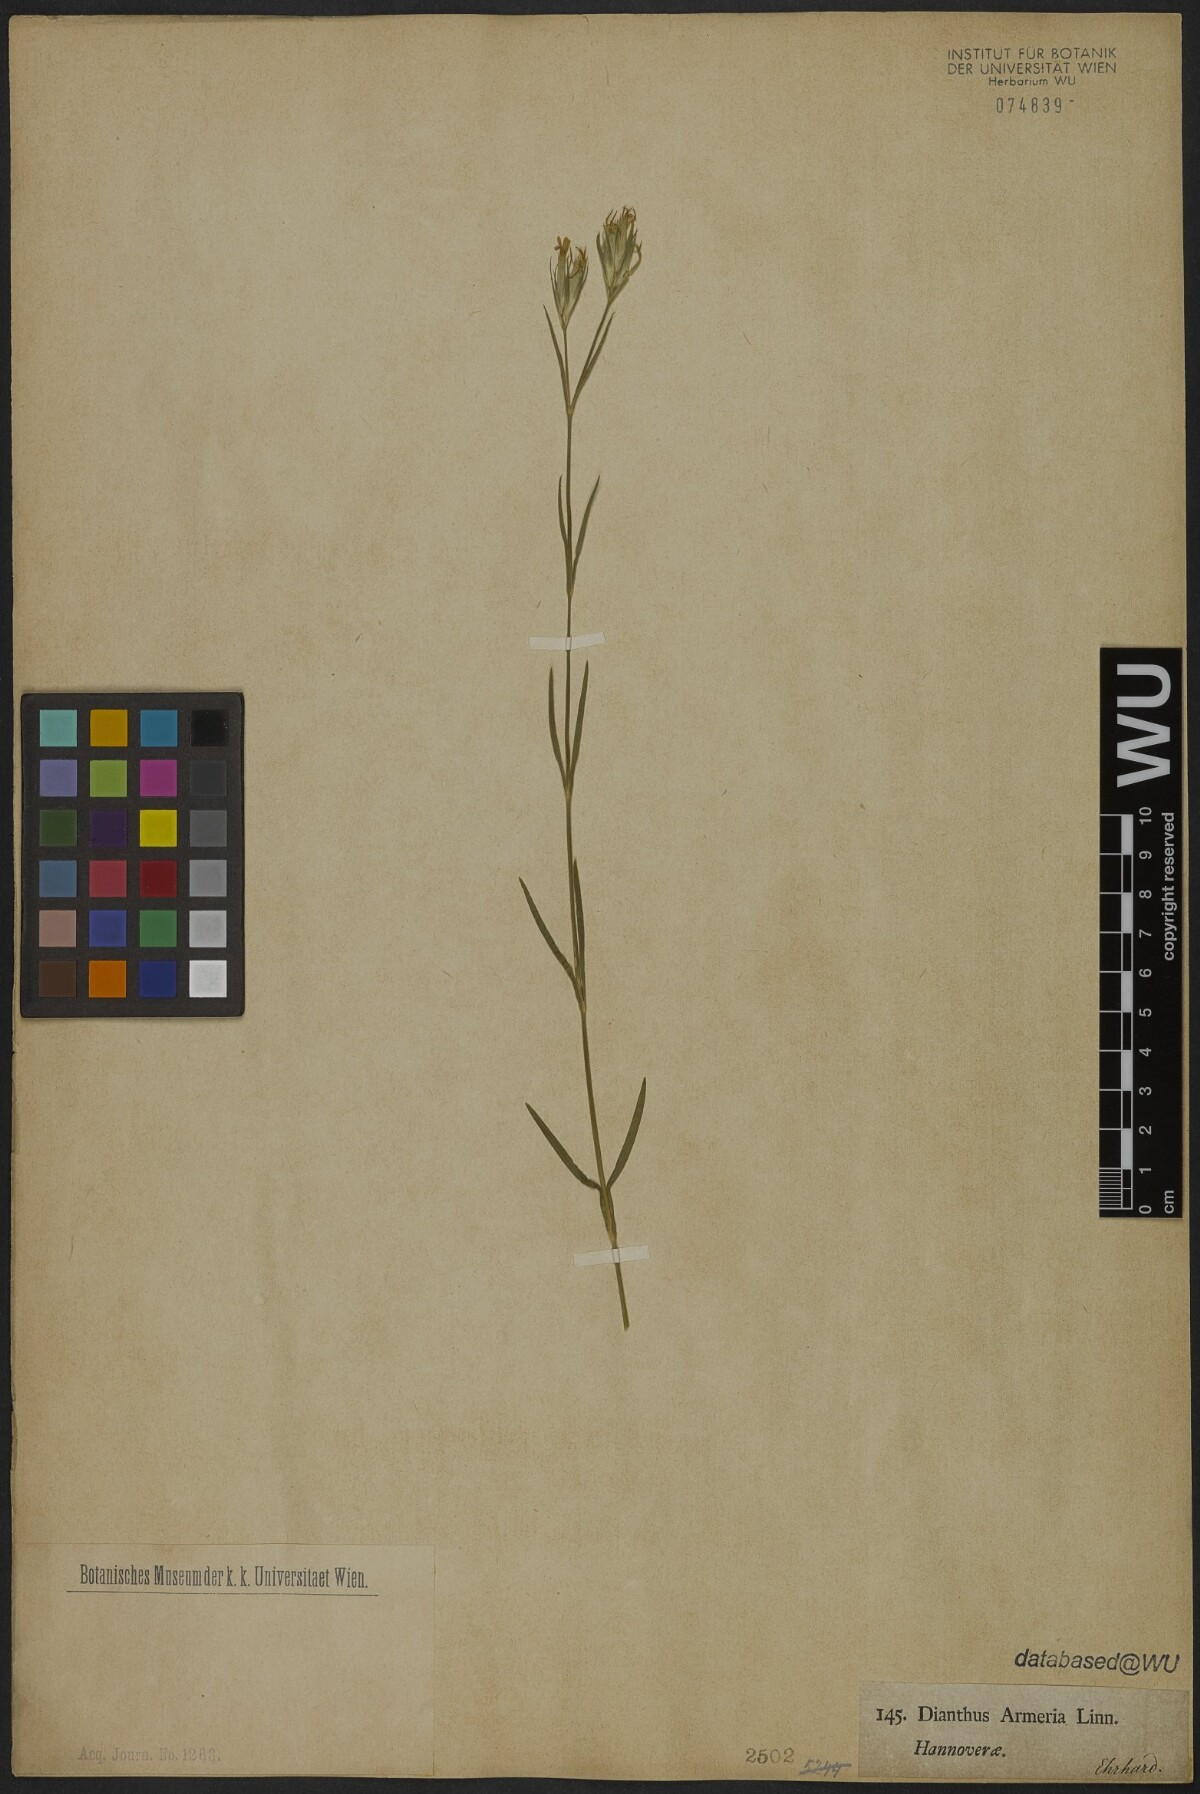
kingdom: Plantae
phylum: Tracheophyta
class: Magnoliopsida
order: Caryophyllales
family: Caryophyllaceae
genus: Dianthus
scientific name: Dianthus armeria
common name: Deptford pink
